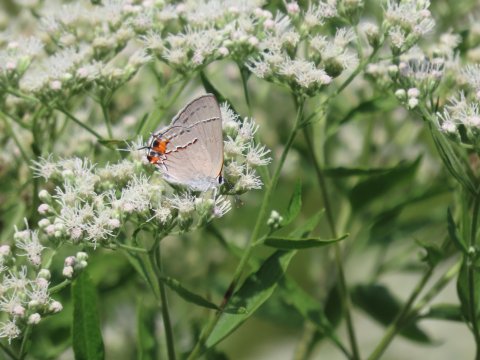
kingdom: Animalia
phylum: Arthropoda
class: Insecta
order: Lepidoptera
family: Lycaenidae
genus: Strymon
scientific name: Strymon melinus
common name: Gray Hairstreak
